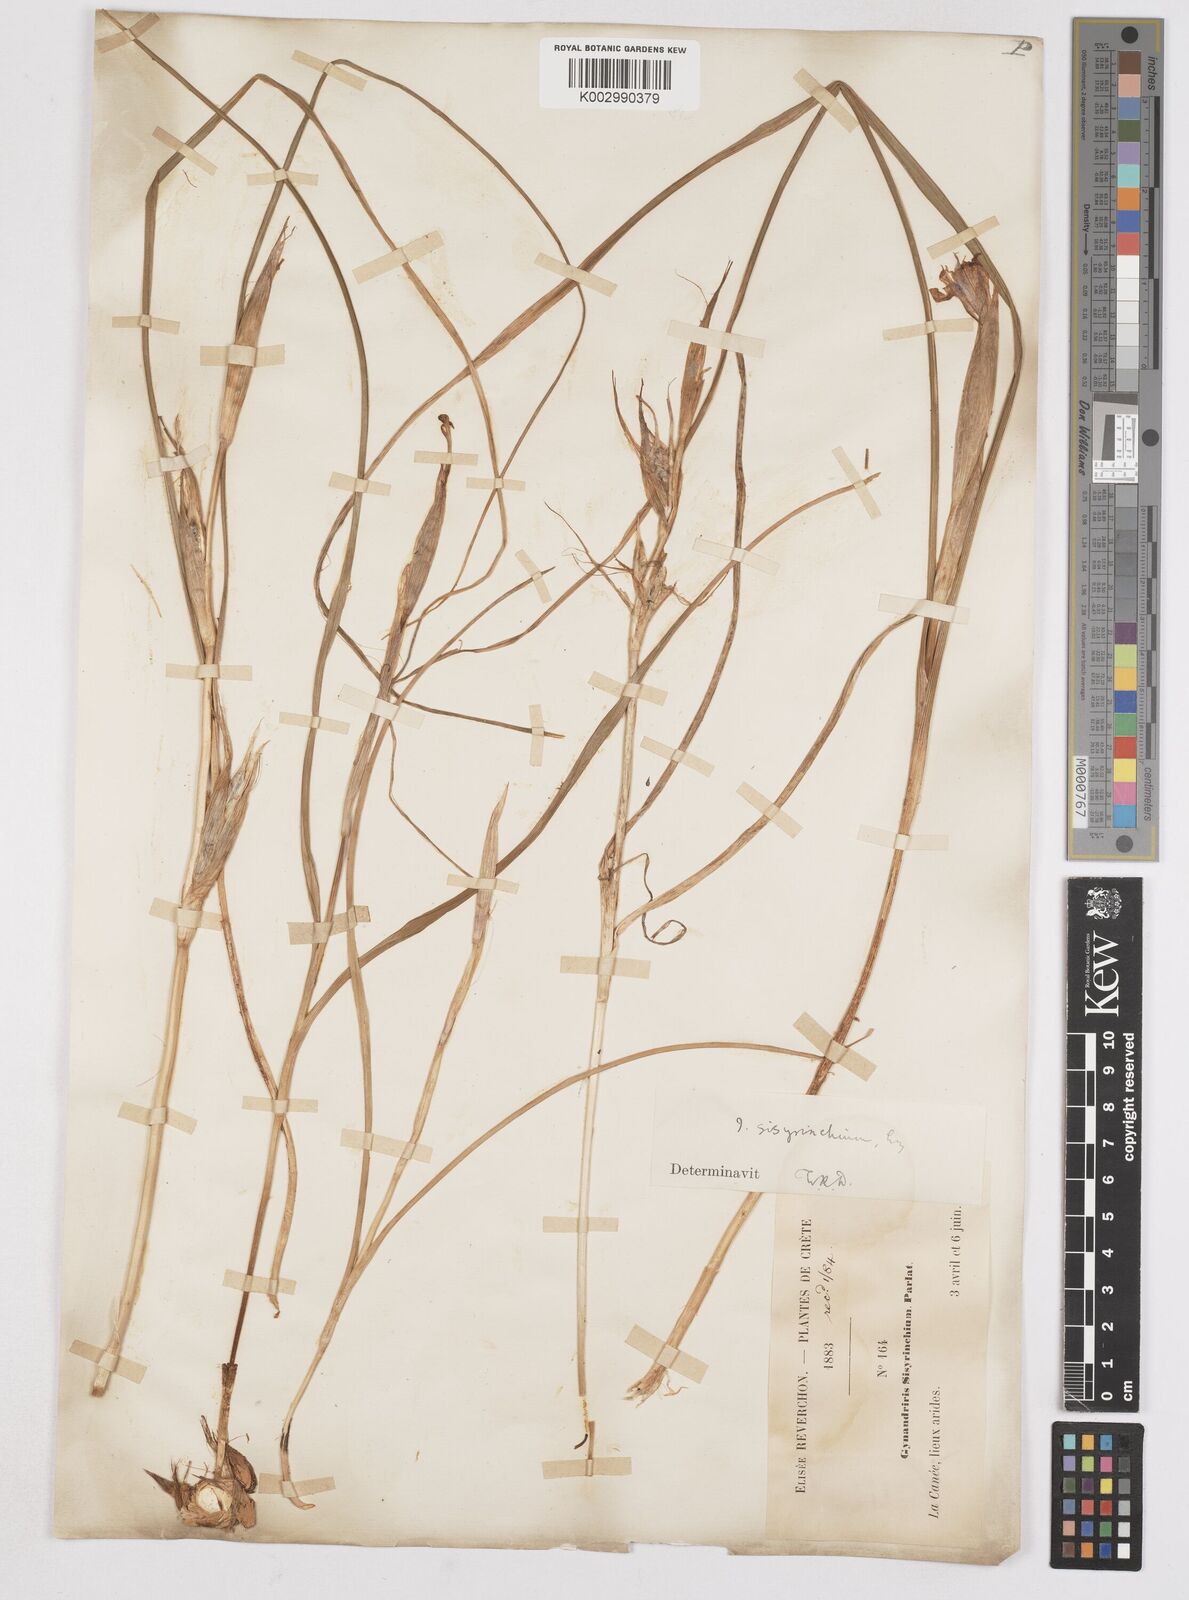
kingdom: Plantae
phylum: Tracheophyta
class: Liliopsida
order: Asparagales
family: Iridaceae
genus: Moraea
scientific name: Moraea sisyrinchium
